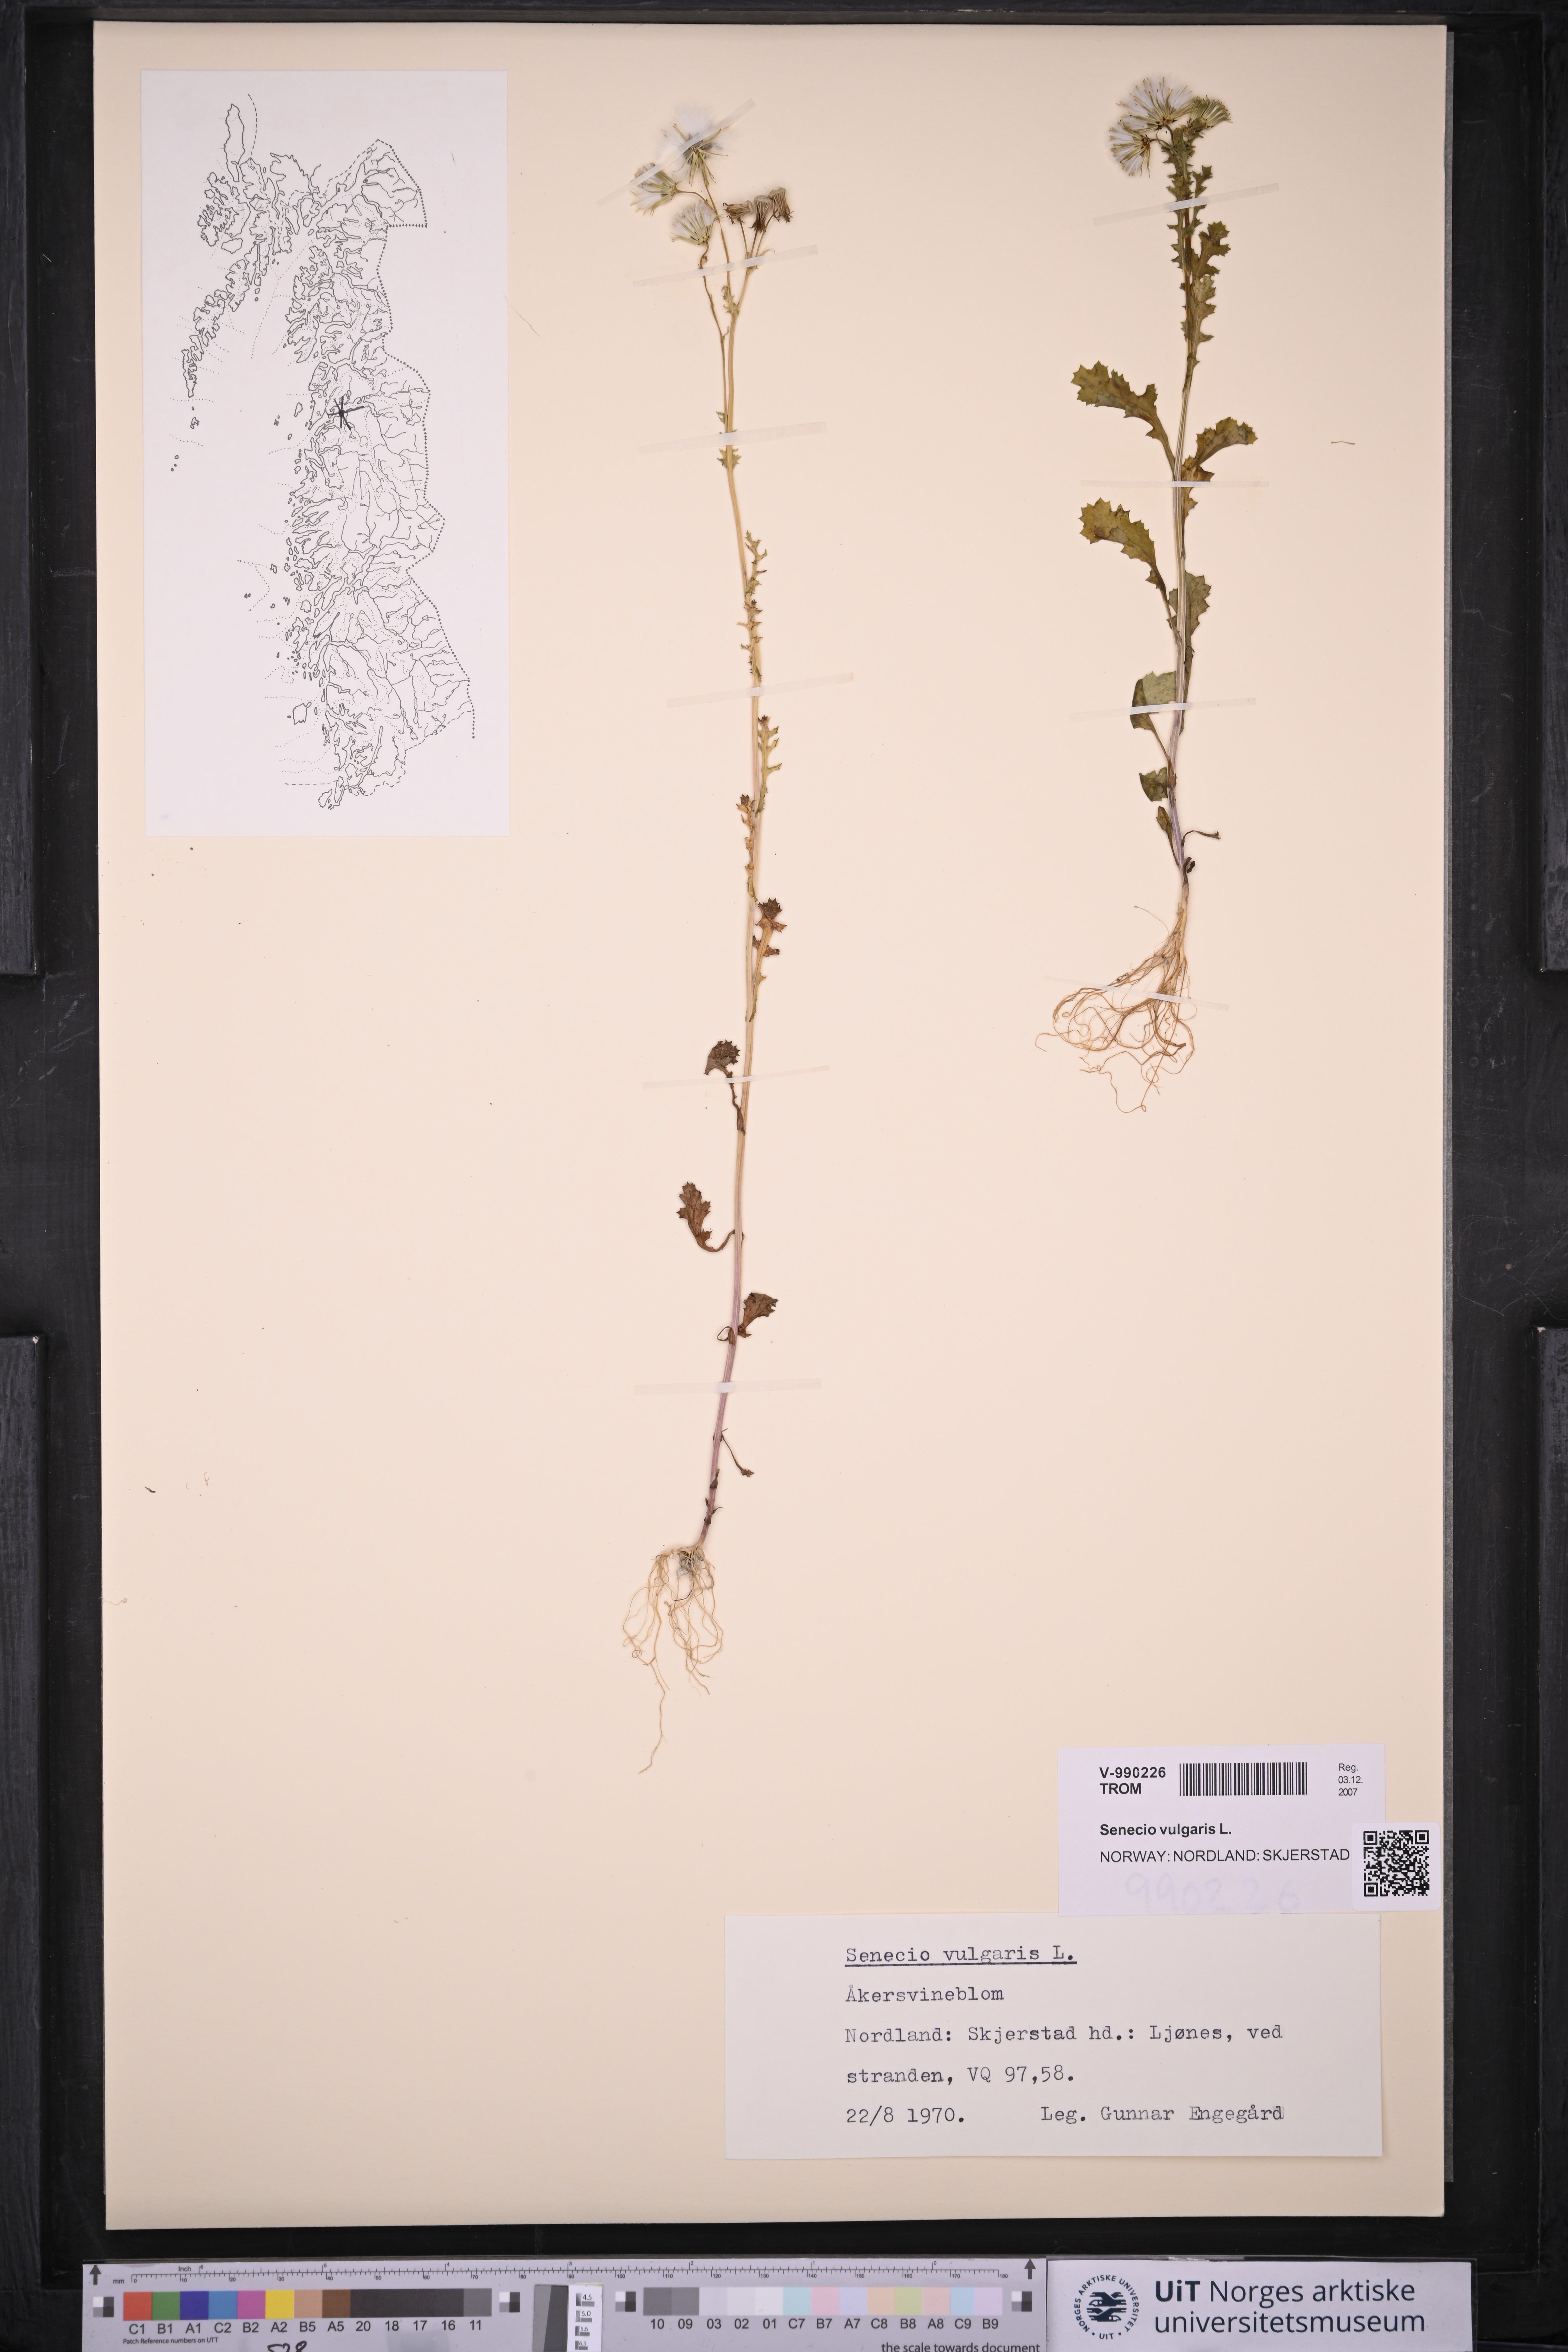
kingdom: Plantae
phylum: Tracheophyta
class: Magnoliopsida
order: Asterales
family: Asteraceae
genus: Senecio
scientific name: Senecio vulgaris
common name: Old-man-in-the-spring
